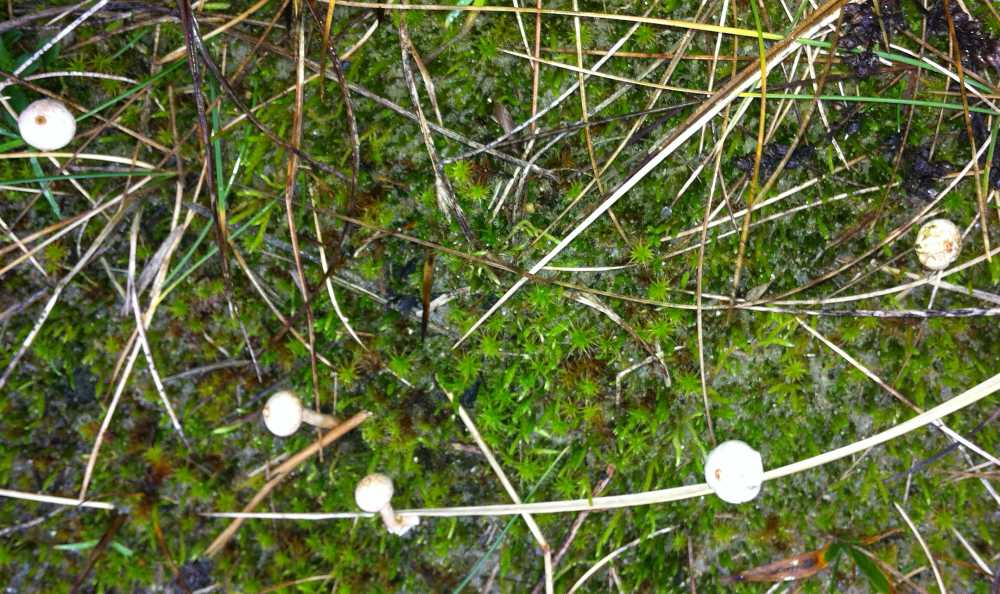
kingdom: Fungi
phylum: Basidiomycota
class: Agaricomycetes
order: Agaricales
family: Agaricaceae
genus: Tulostoma
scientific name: Tulostoma brumale
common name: vinter-stilkbovist
